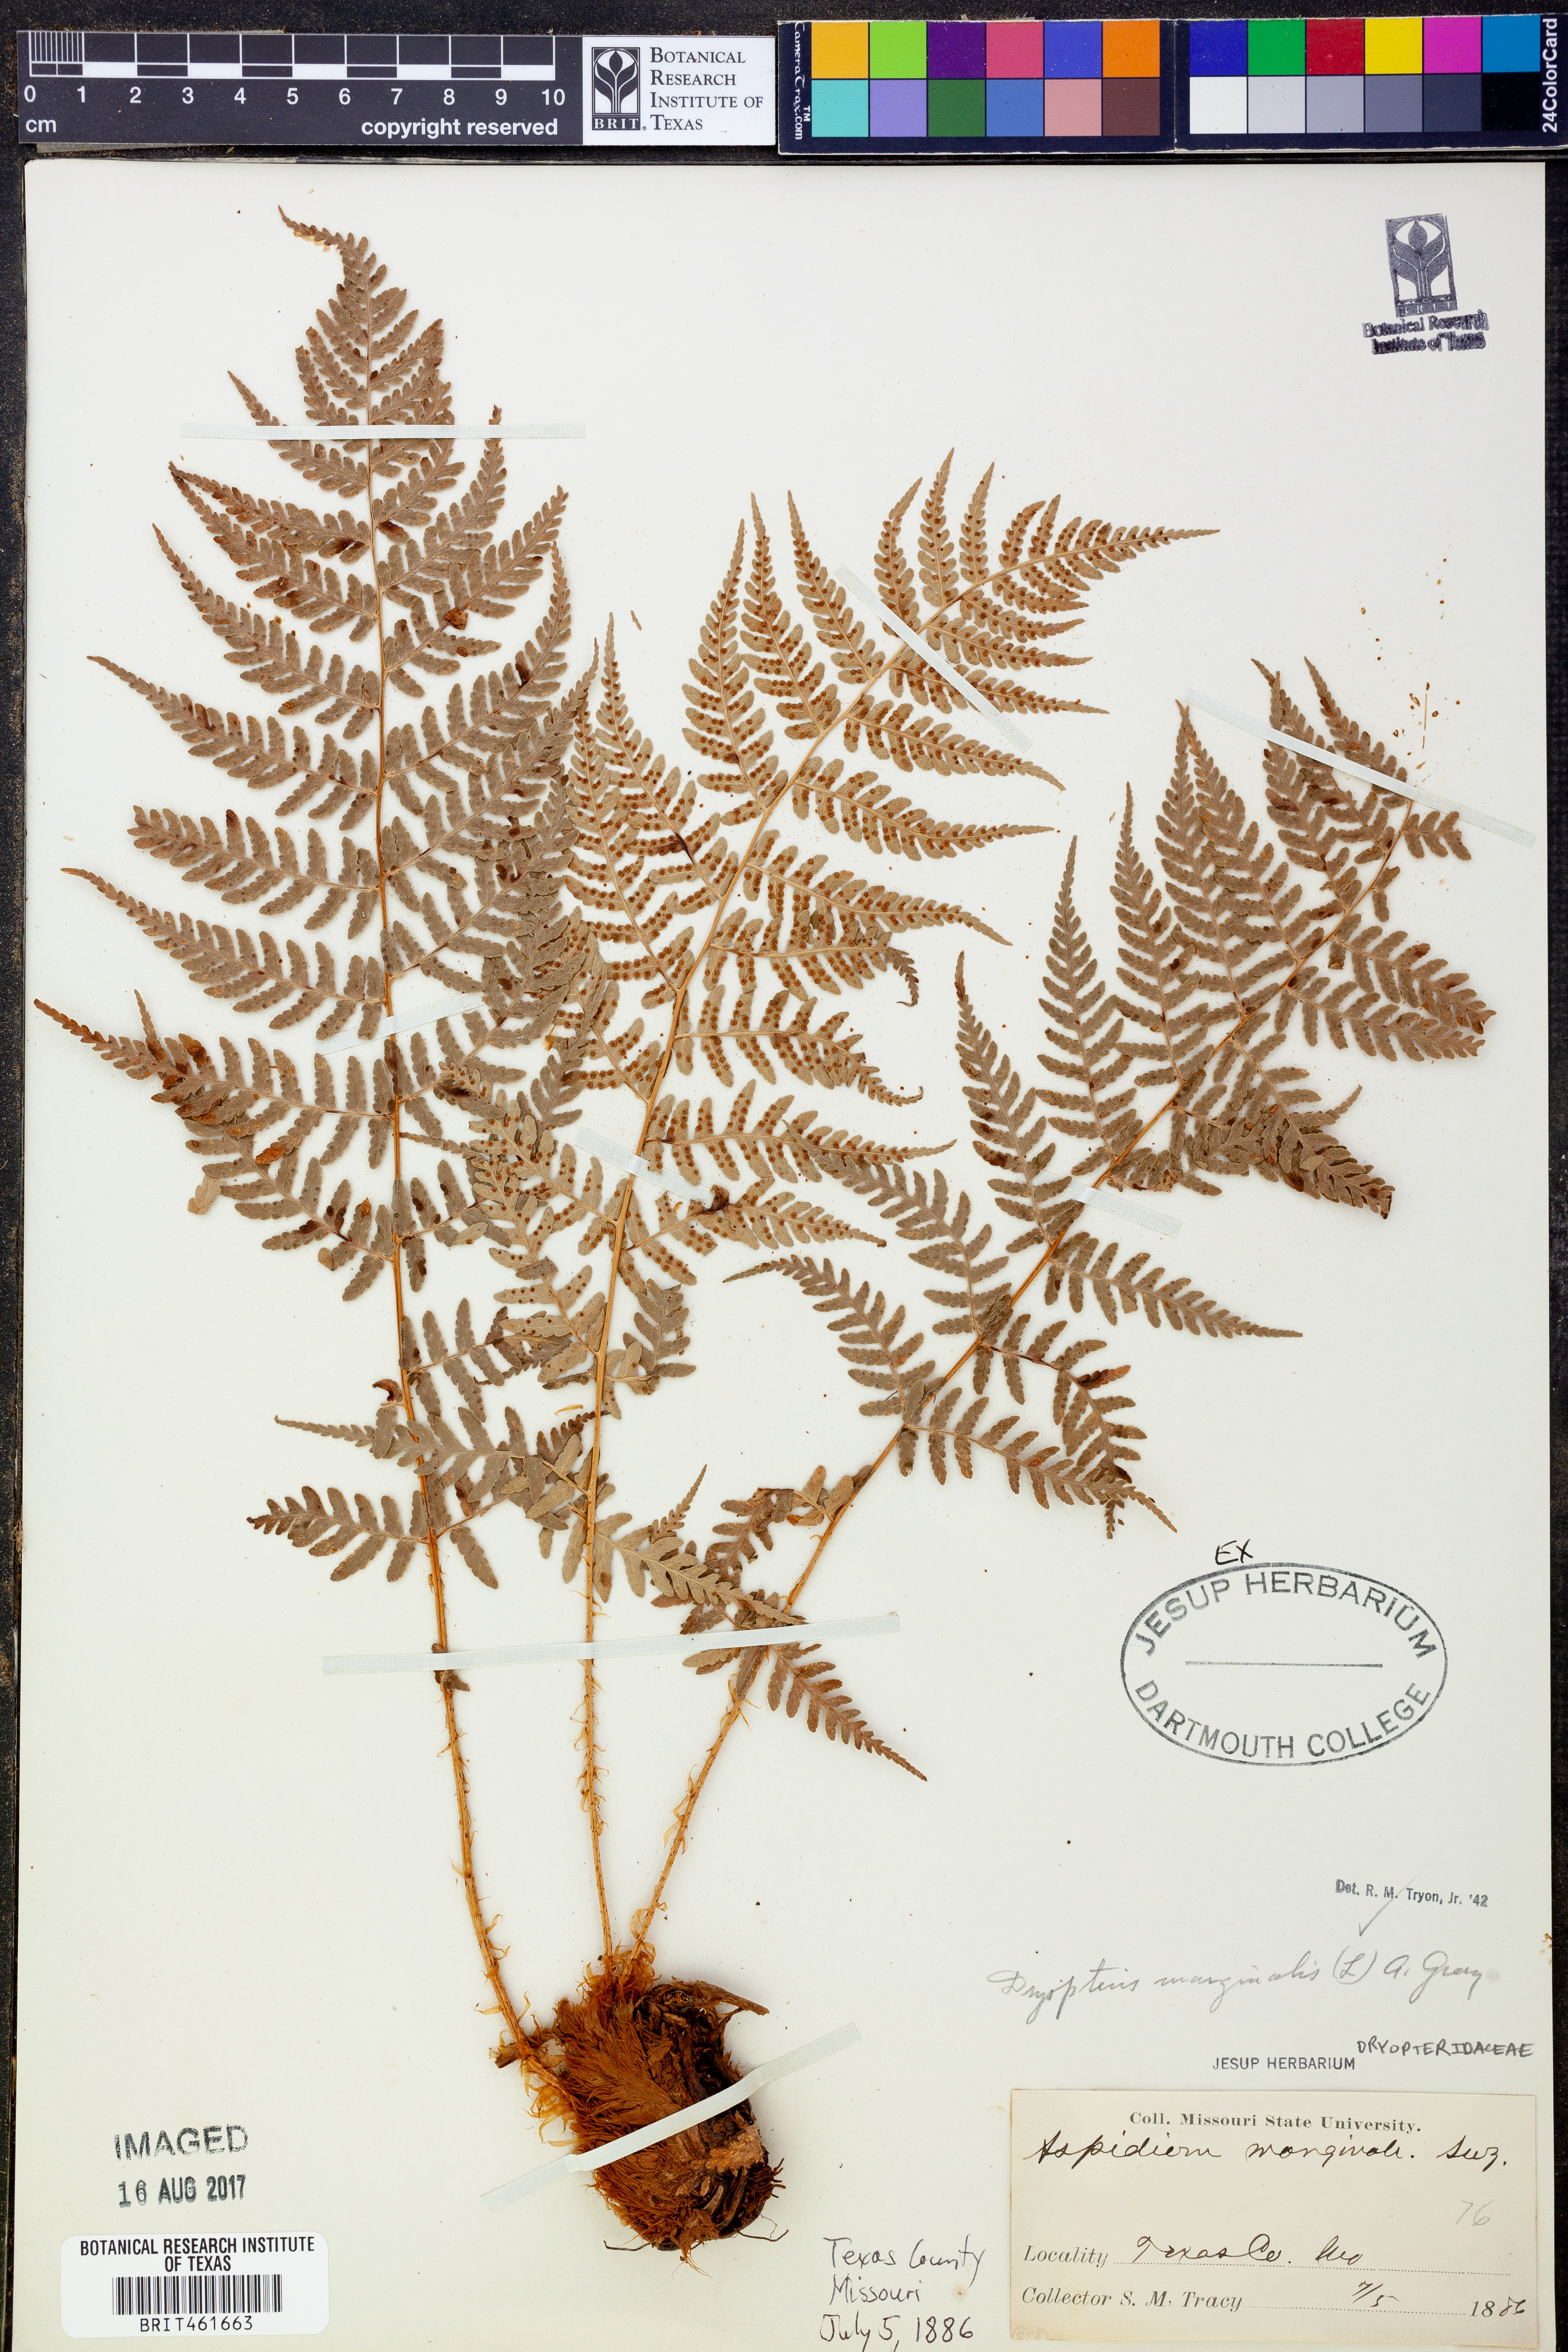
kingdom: Plantae
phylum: Tracheophyta
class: Polypodiopsida
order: Polypodiales
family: Dryopteridaceae
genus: Dryopteris
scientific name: Dryopteris marginalis
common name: Marginal wood fern
